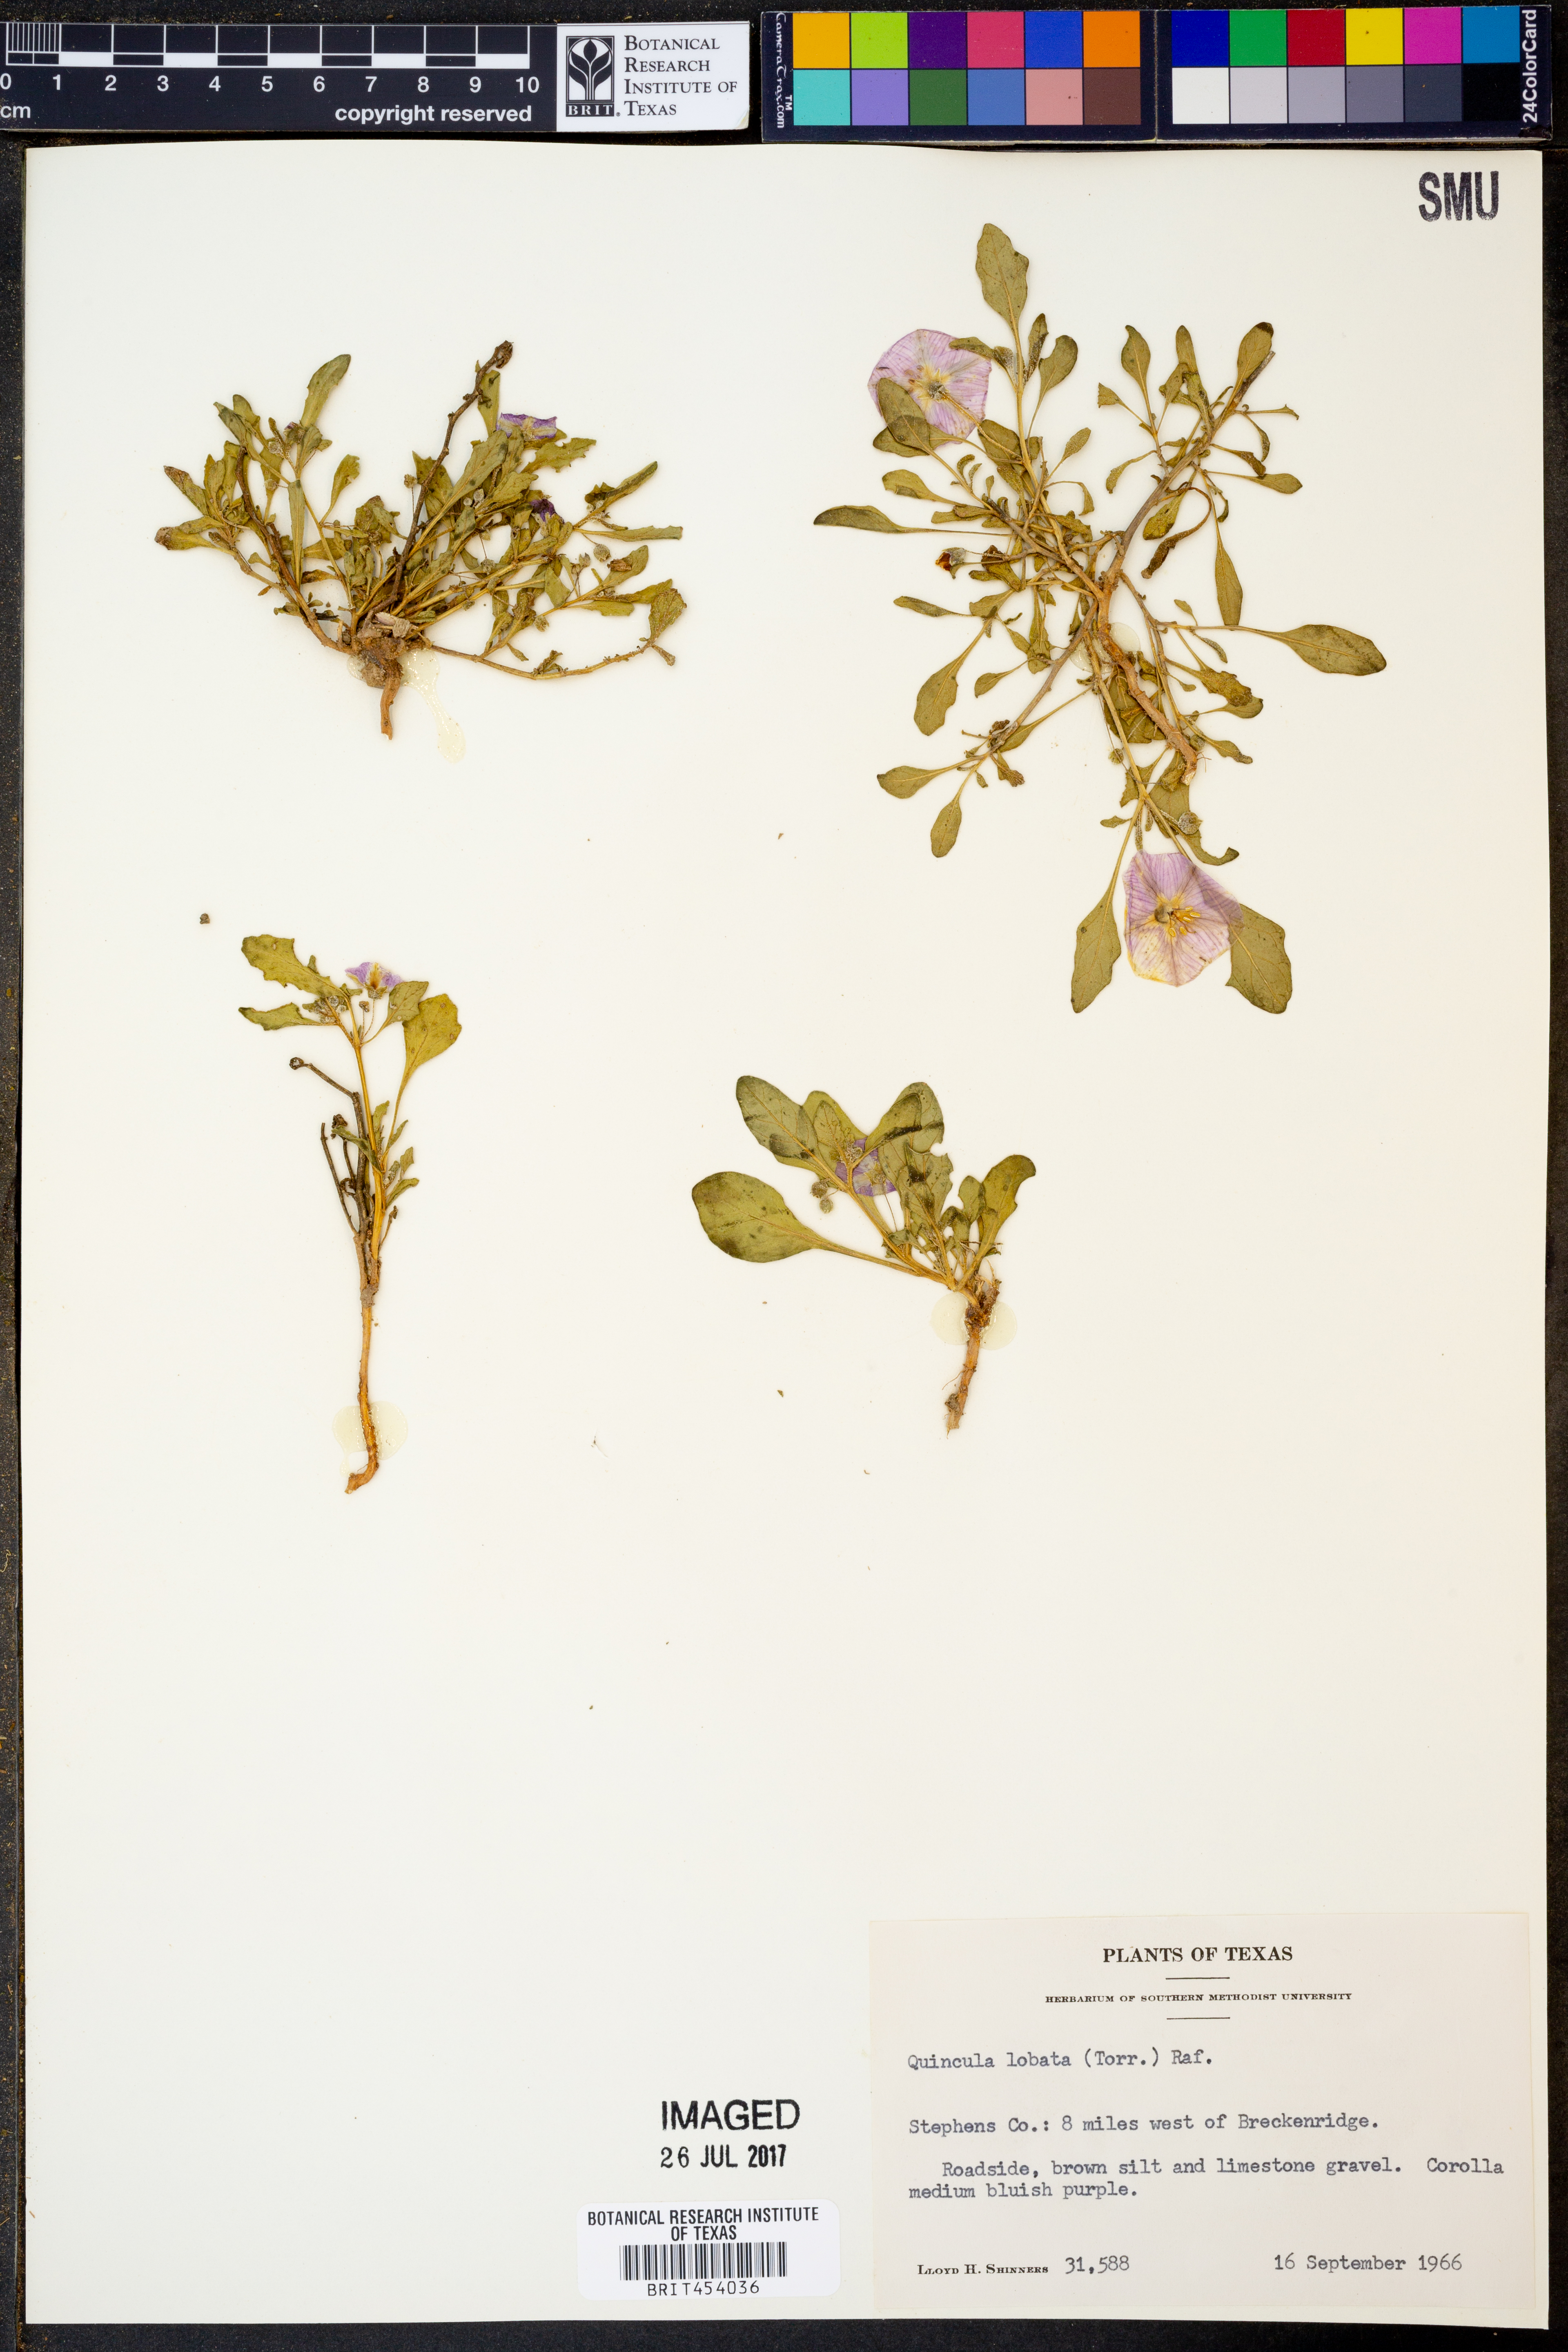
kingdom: Plantae
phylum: Tracheophyta
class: Magnoliopsida
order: Solanales
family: Solanaceae
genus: Quincula
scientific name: Quincula lobata
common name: Purple-ground-cherry
